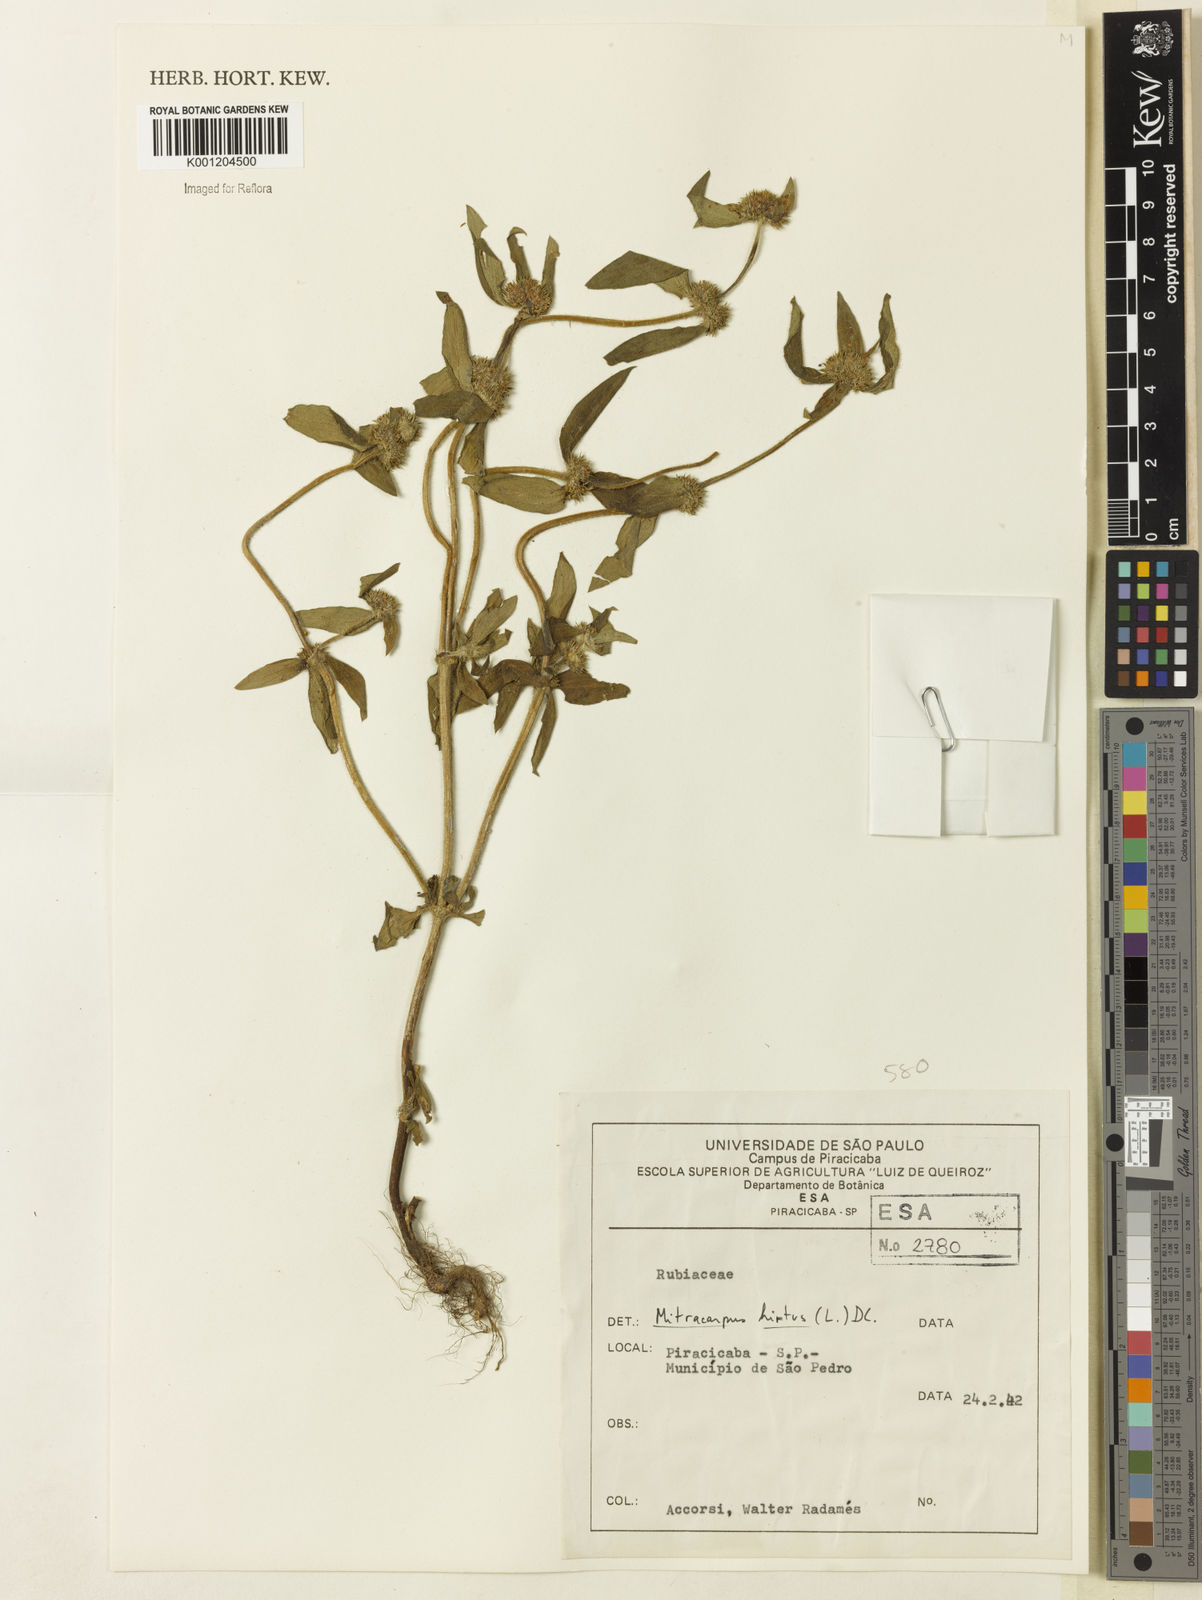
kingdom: Plantae
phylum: Tracheophyta
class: Magnoliopsida
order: Gentianales
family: Rubiaceae
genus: Mitracarpus
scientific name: Mitracarpus hirtus
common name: Tropical girdlepod
